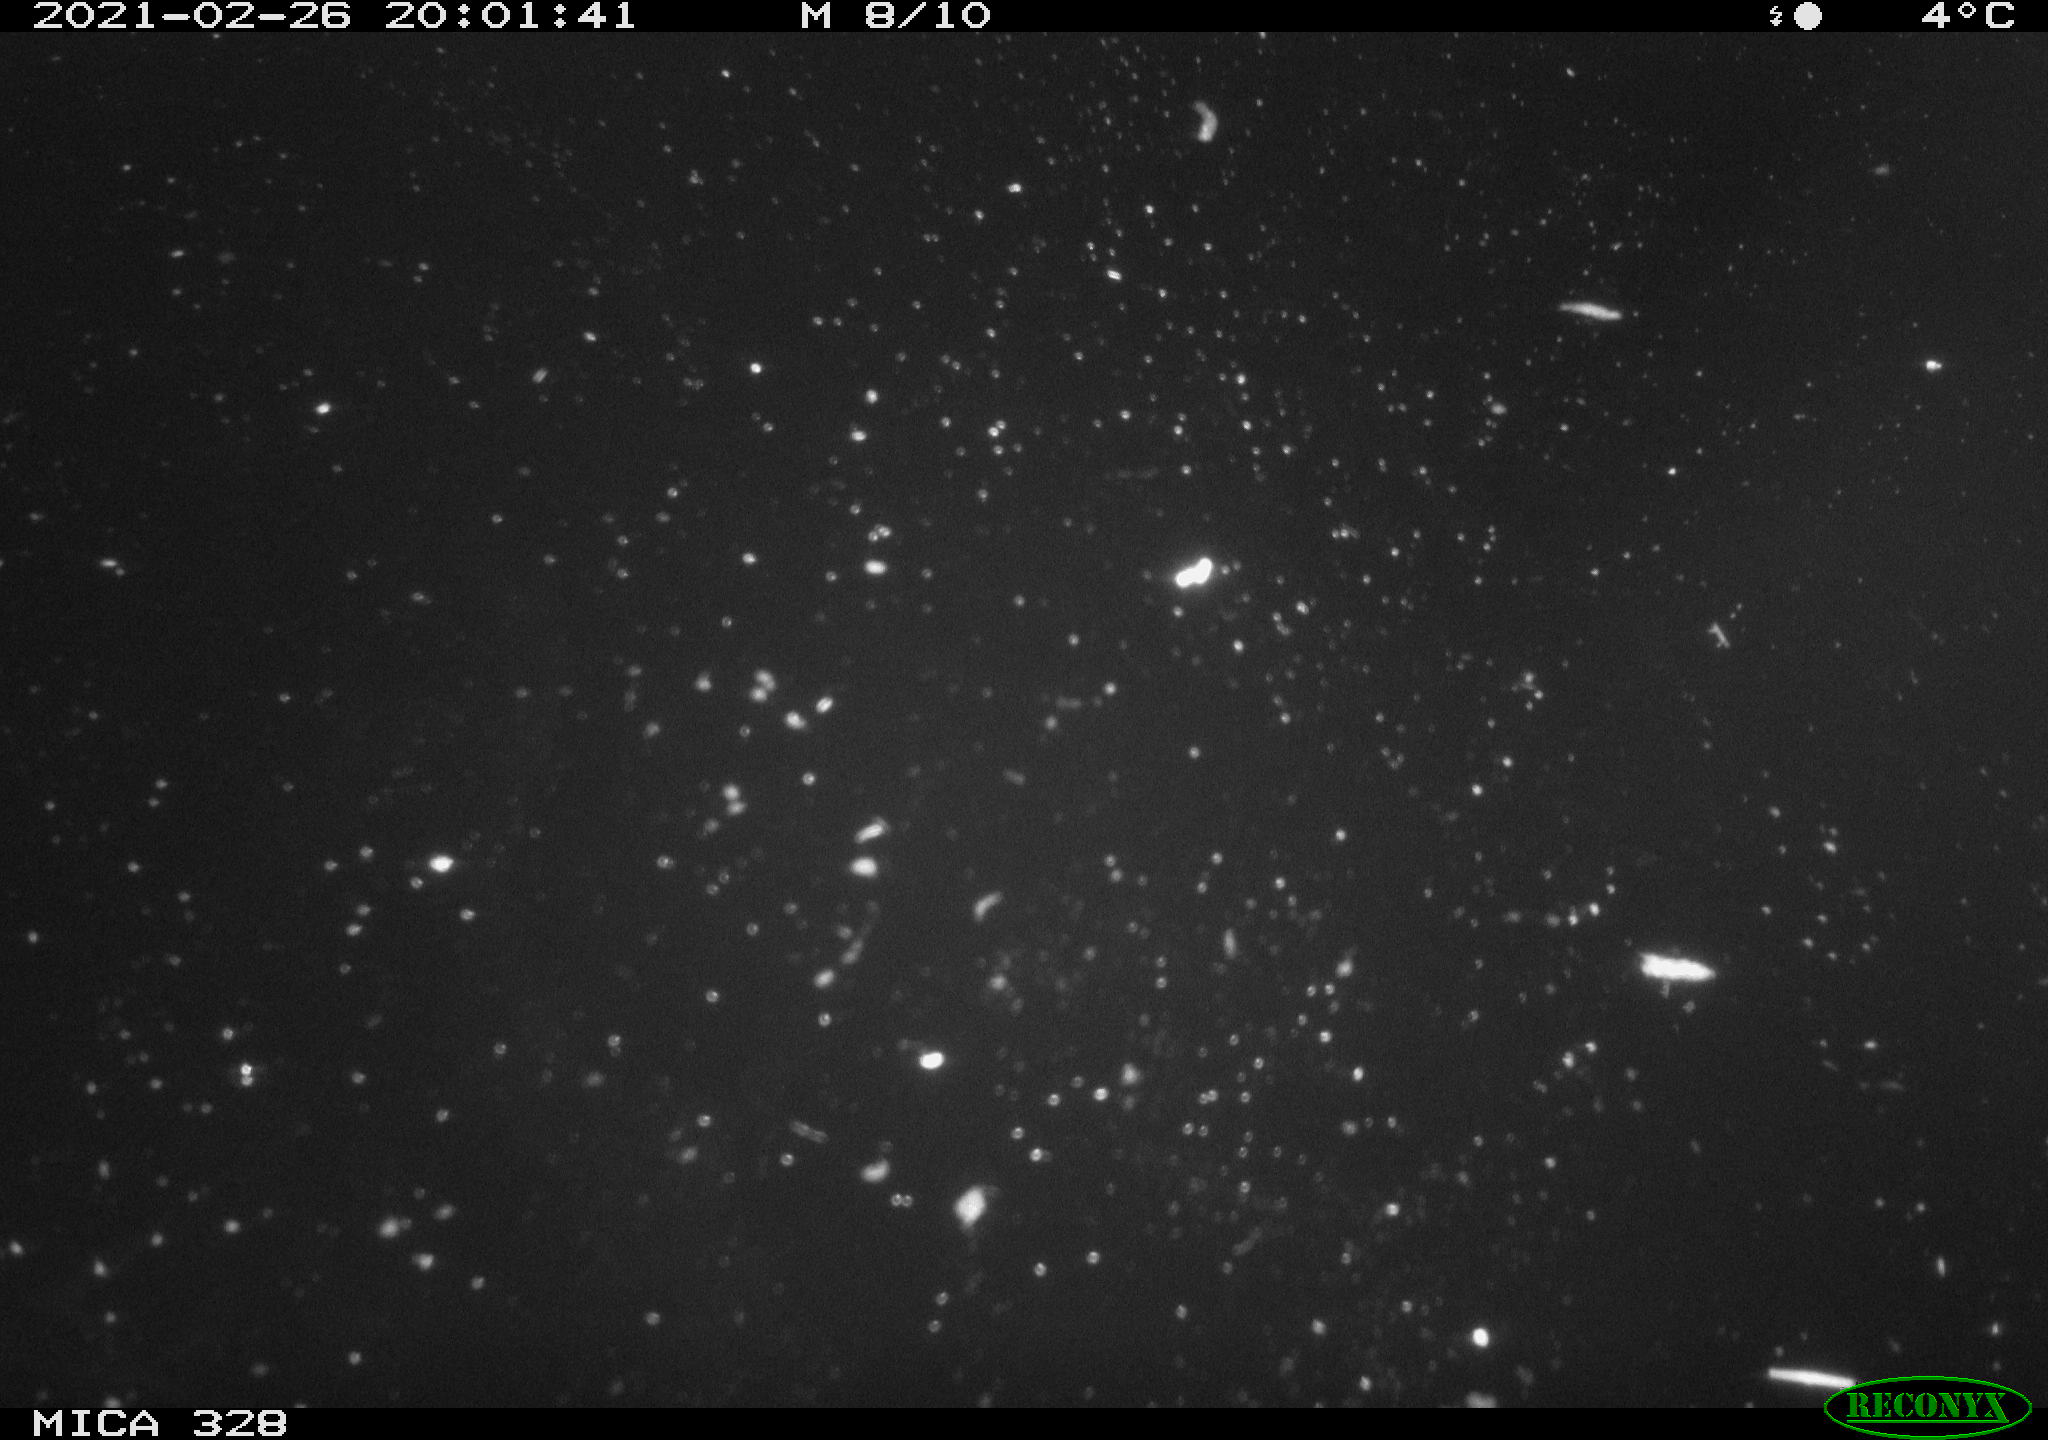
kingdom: Animalia
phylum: Chordata
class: Mammalia
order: Rodentia
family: Myocastoridae
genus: Myocastor
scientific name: Myocastor coypus
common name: Coypu
